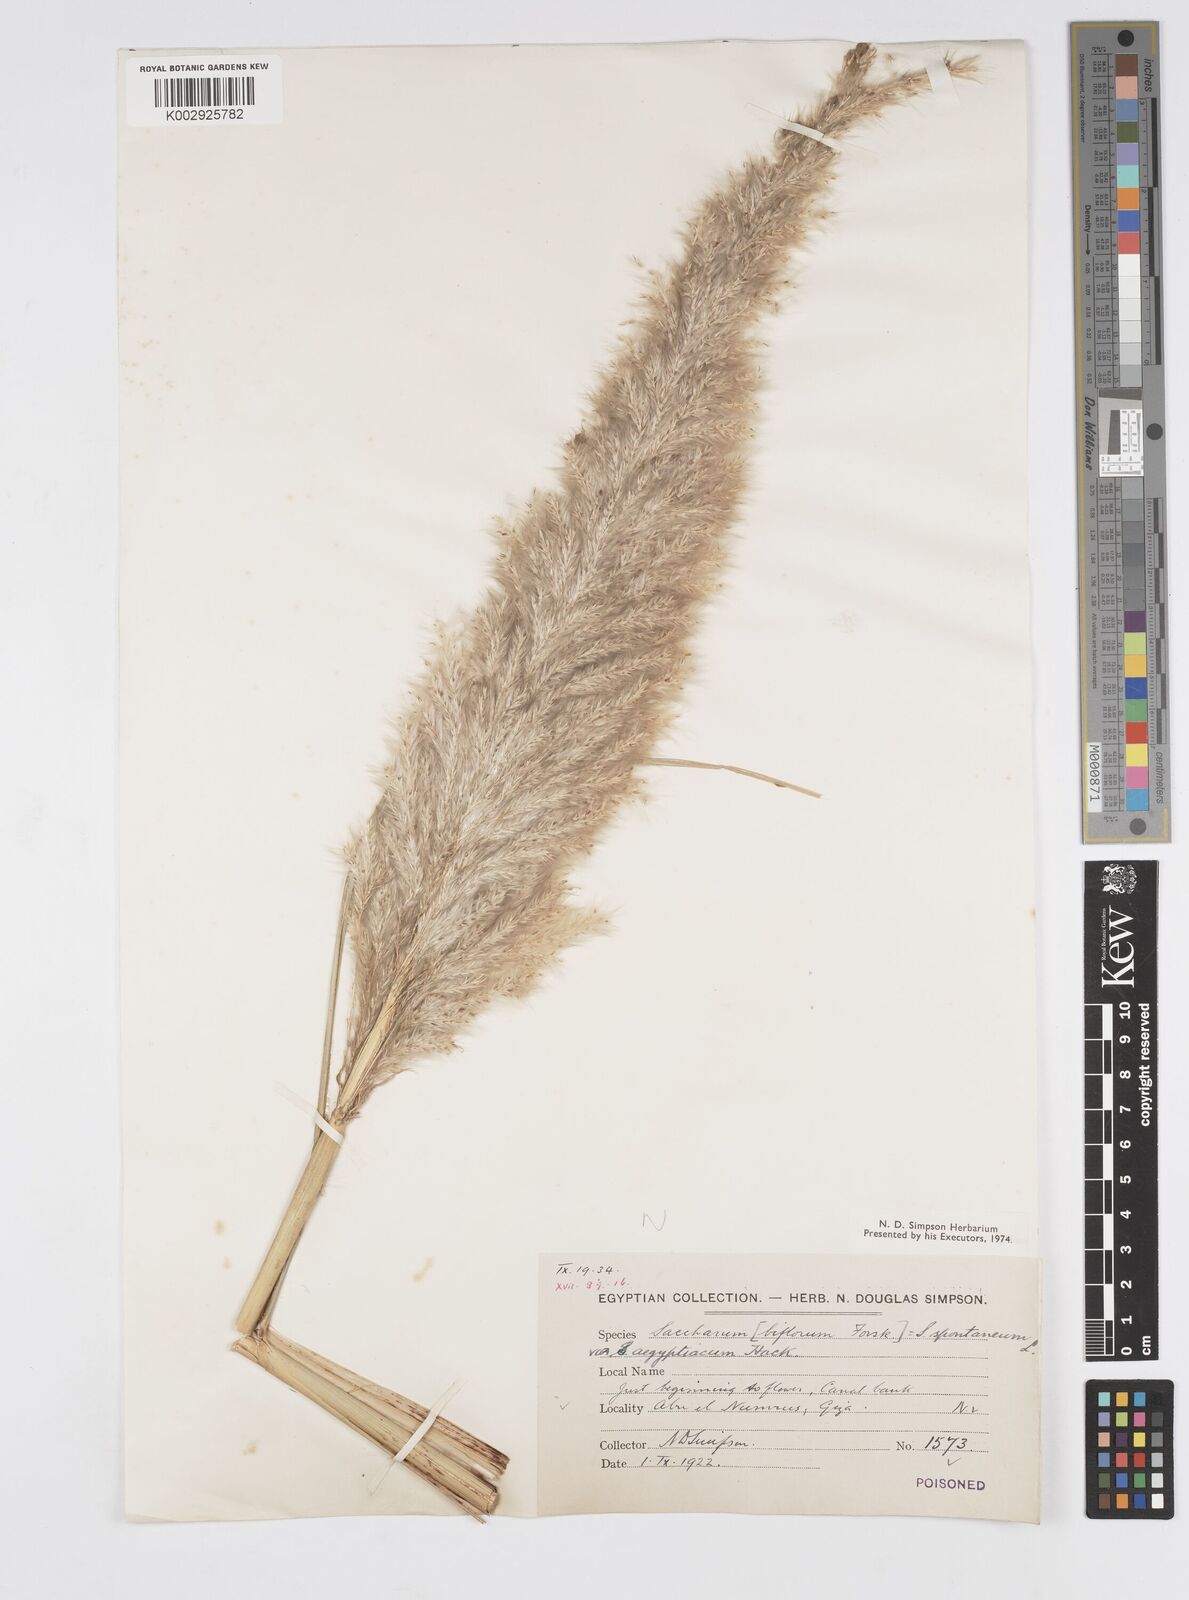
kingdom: Plantae
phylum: Tracheophyta
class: Liliopsida
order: Poales
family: Poaceae
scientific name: Poaceae
